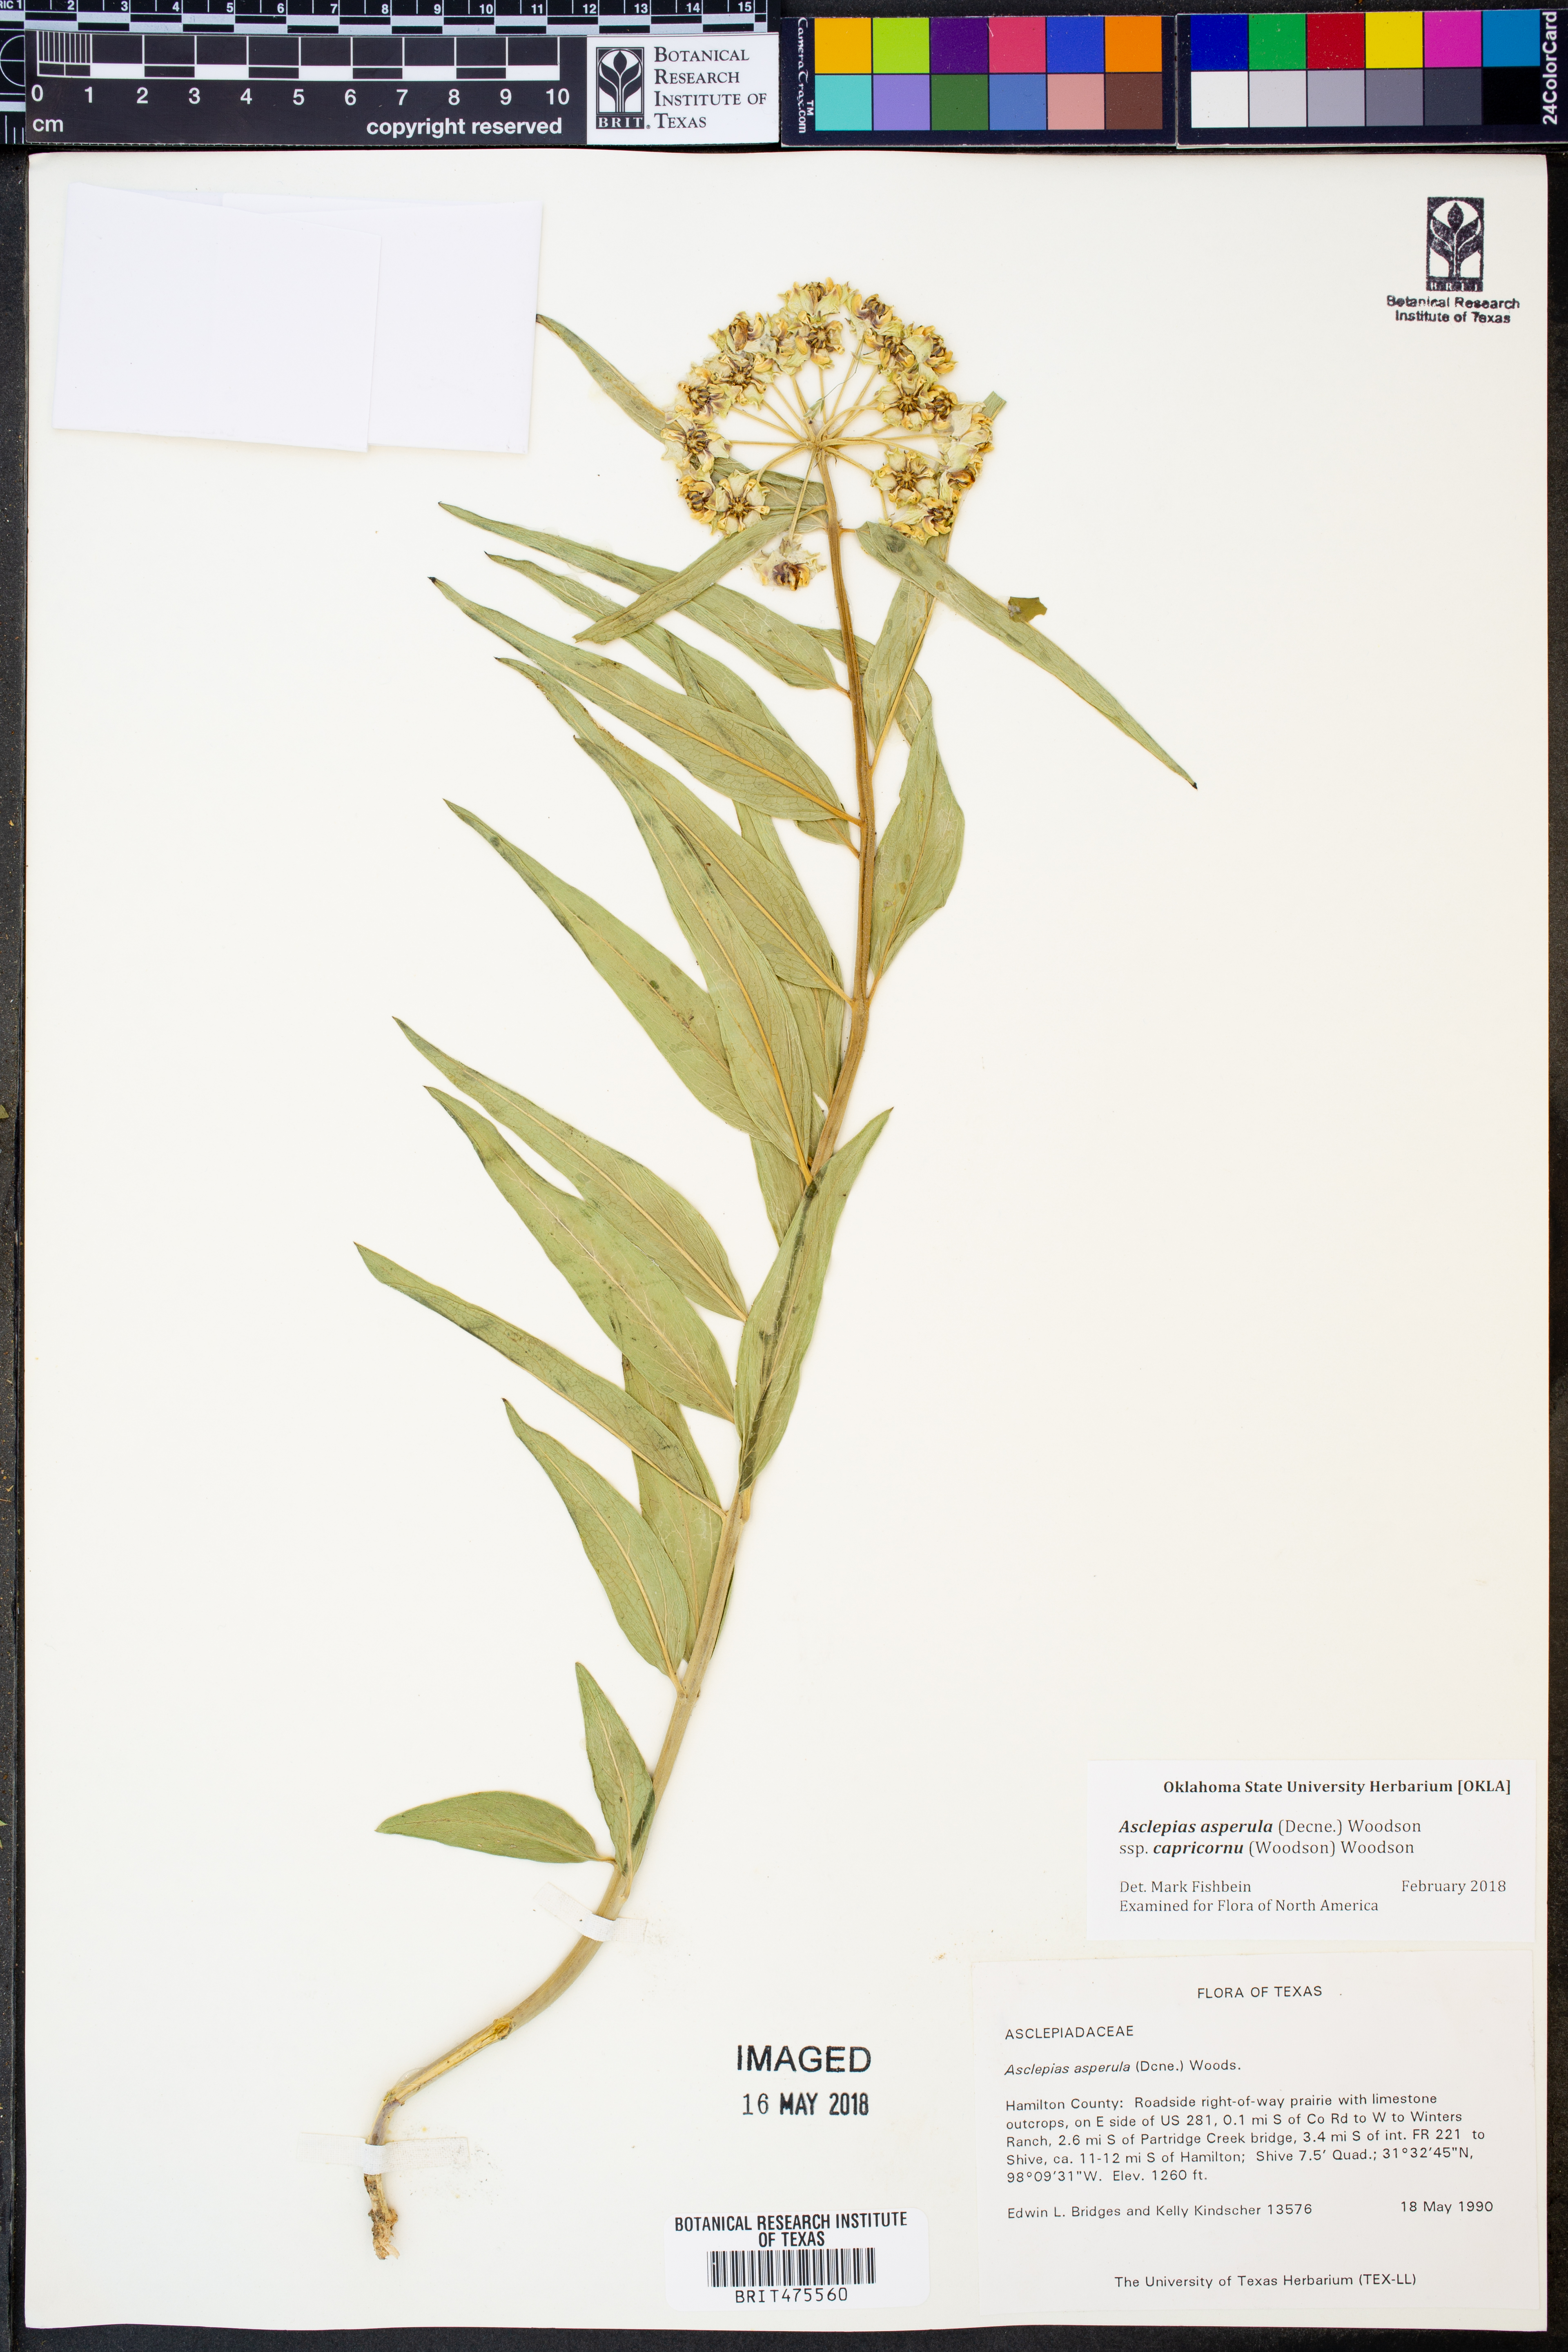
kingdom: Plantae
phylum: Tracheophyta
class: Magnoliopsida
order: Gentianales
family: Apocynaceae
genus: Asclepias
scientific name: Asclepias asperula
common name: Antelope horns
